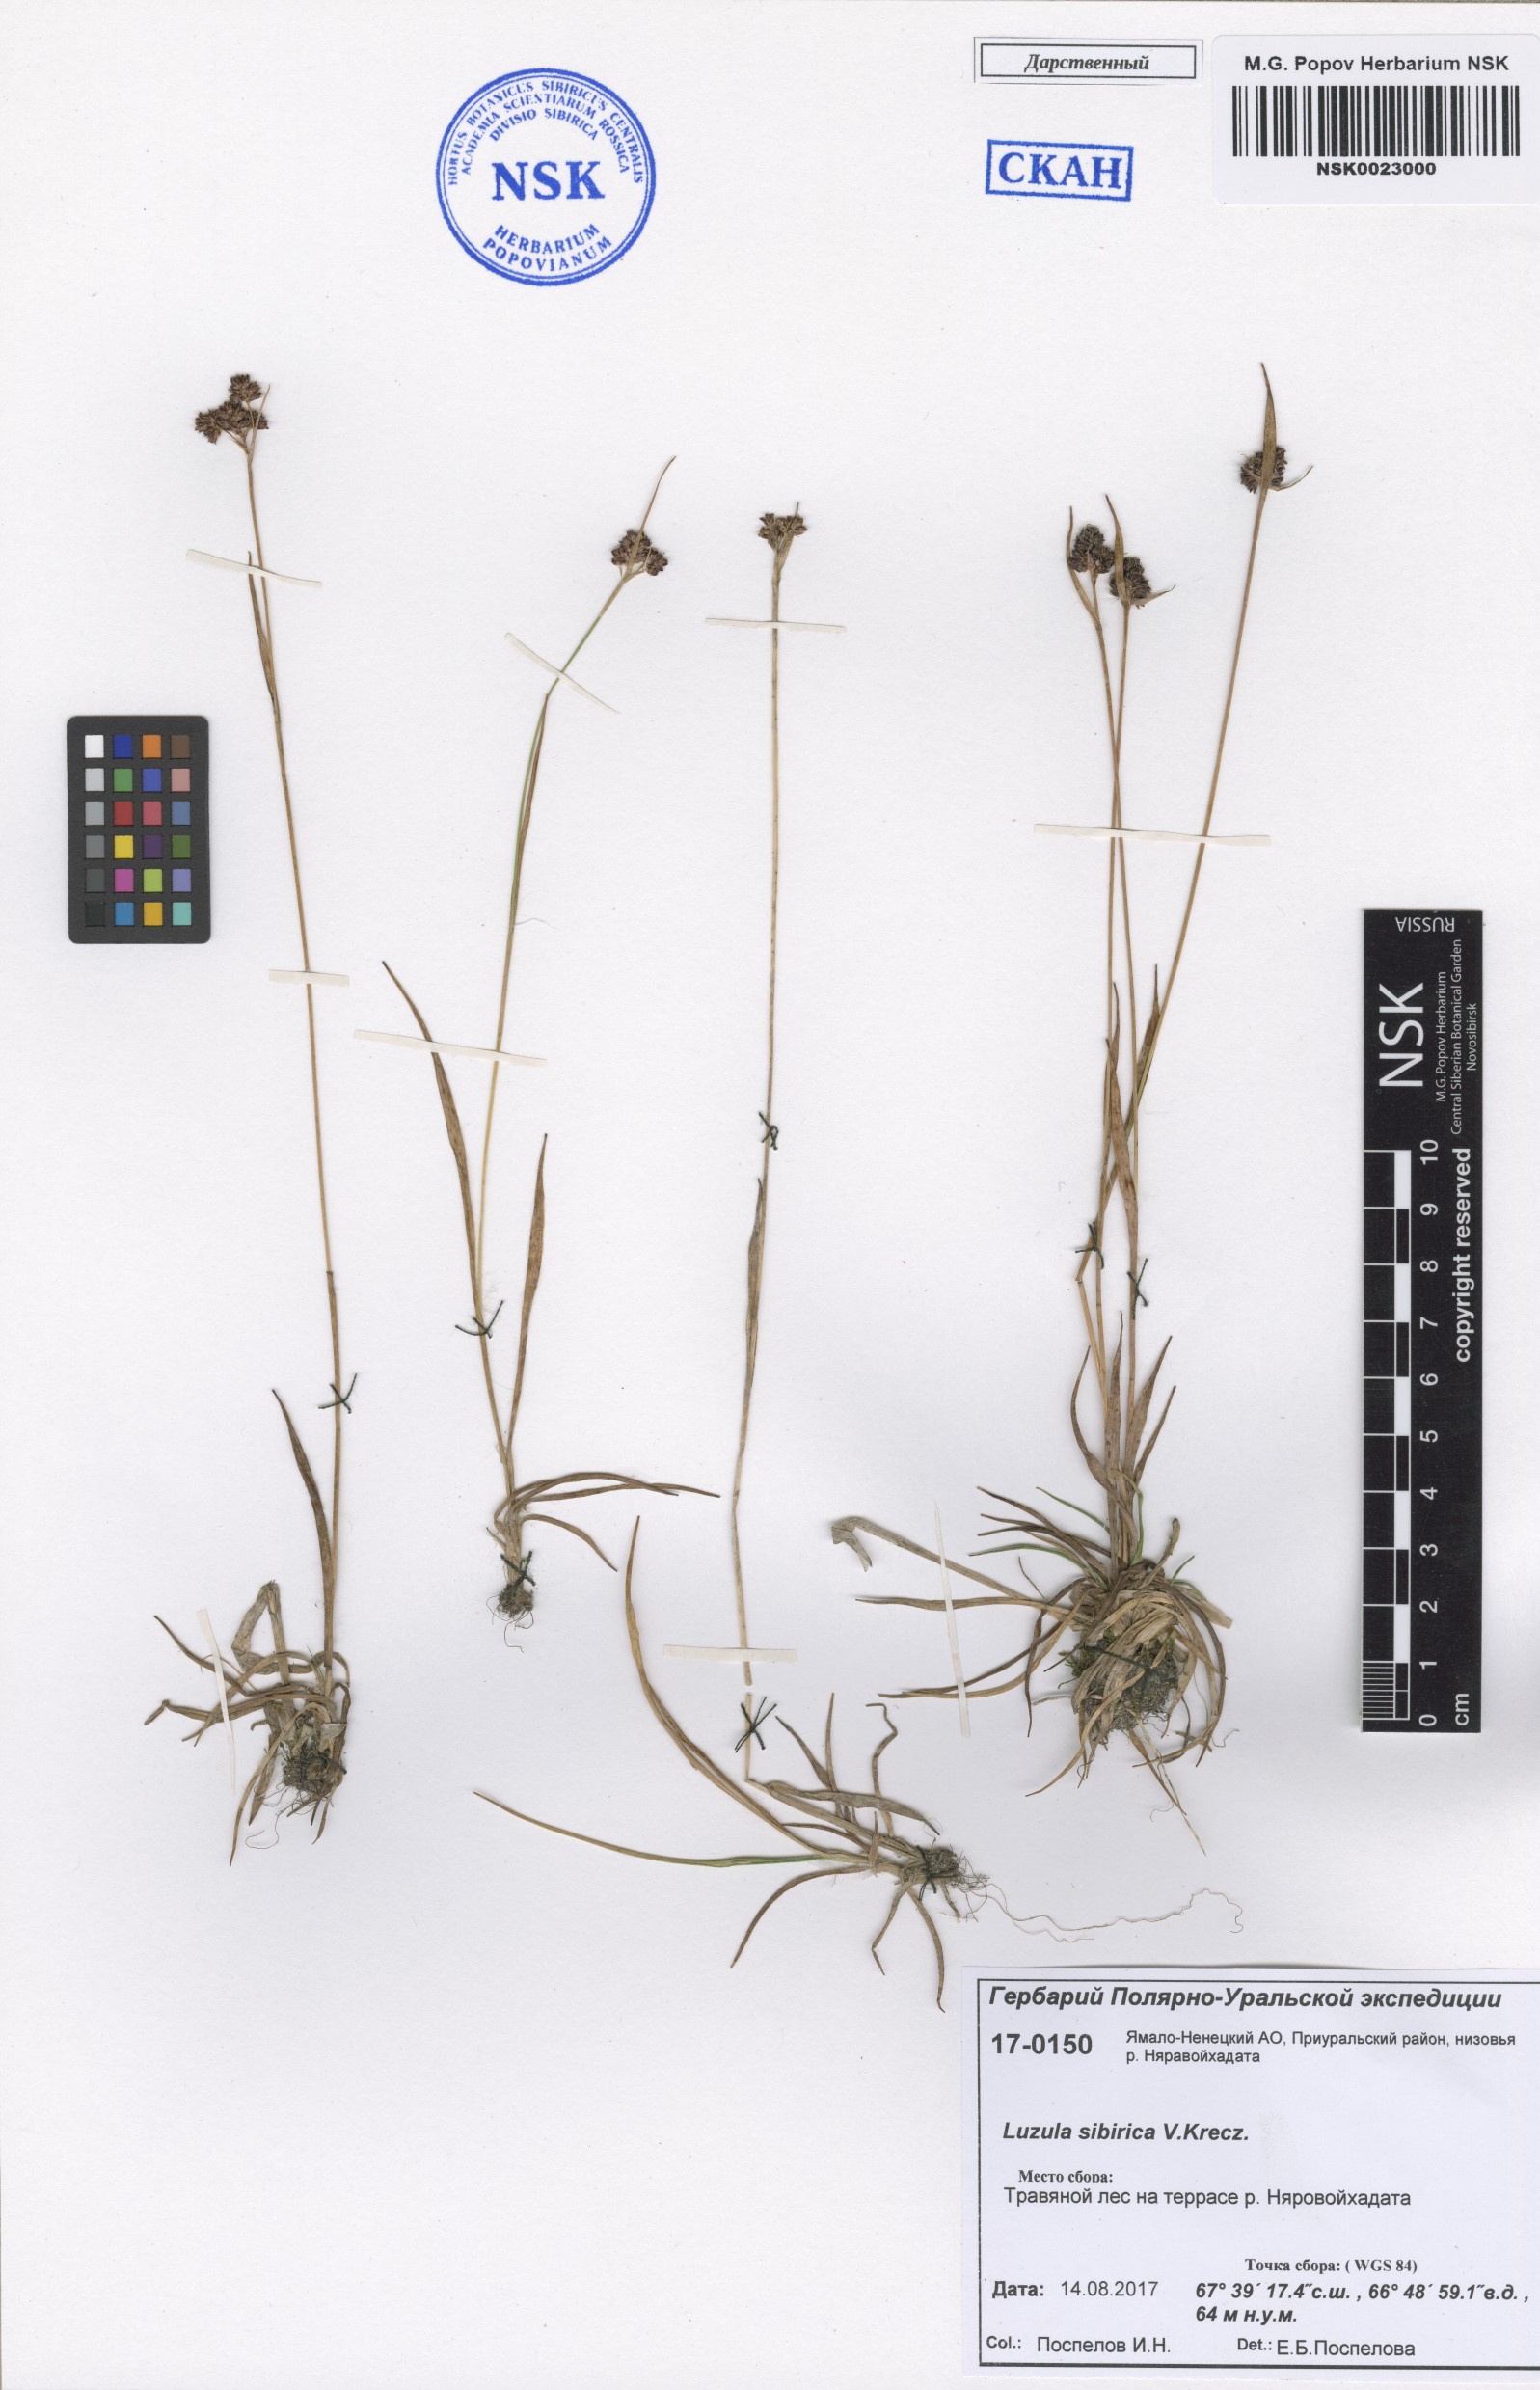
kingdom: Plantae
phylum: Tracheophyta
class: Liliopsida
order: Poales
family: Juncaceae
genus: Luzula
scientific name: Luzula multiflora
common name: Heath wood-rush
